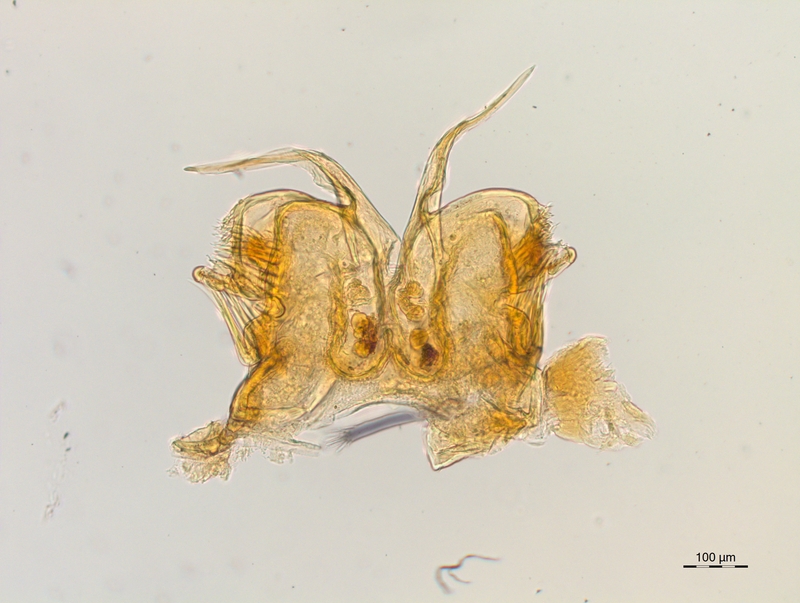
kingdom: Animalia
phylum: Arthropoda
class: Diplopoda
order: Chordeumatida
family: Craspedosomatidae
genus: Craspedosoma
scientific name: Craspedosoma rawlinsii
